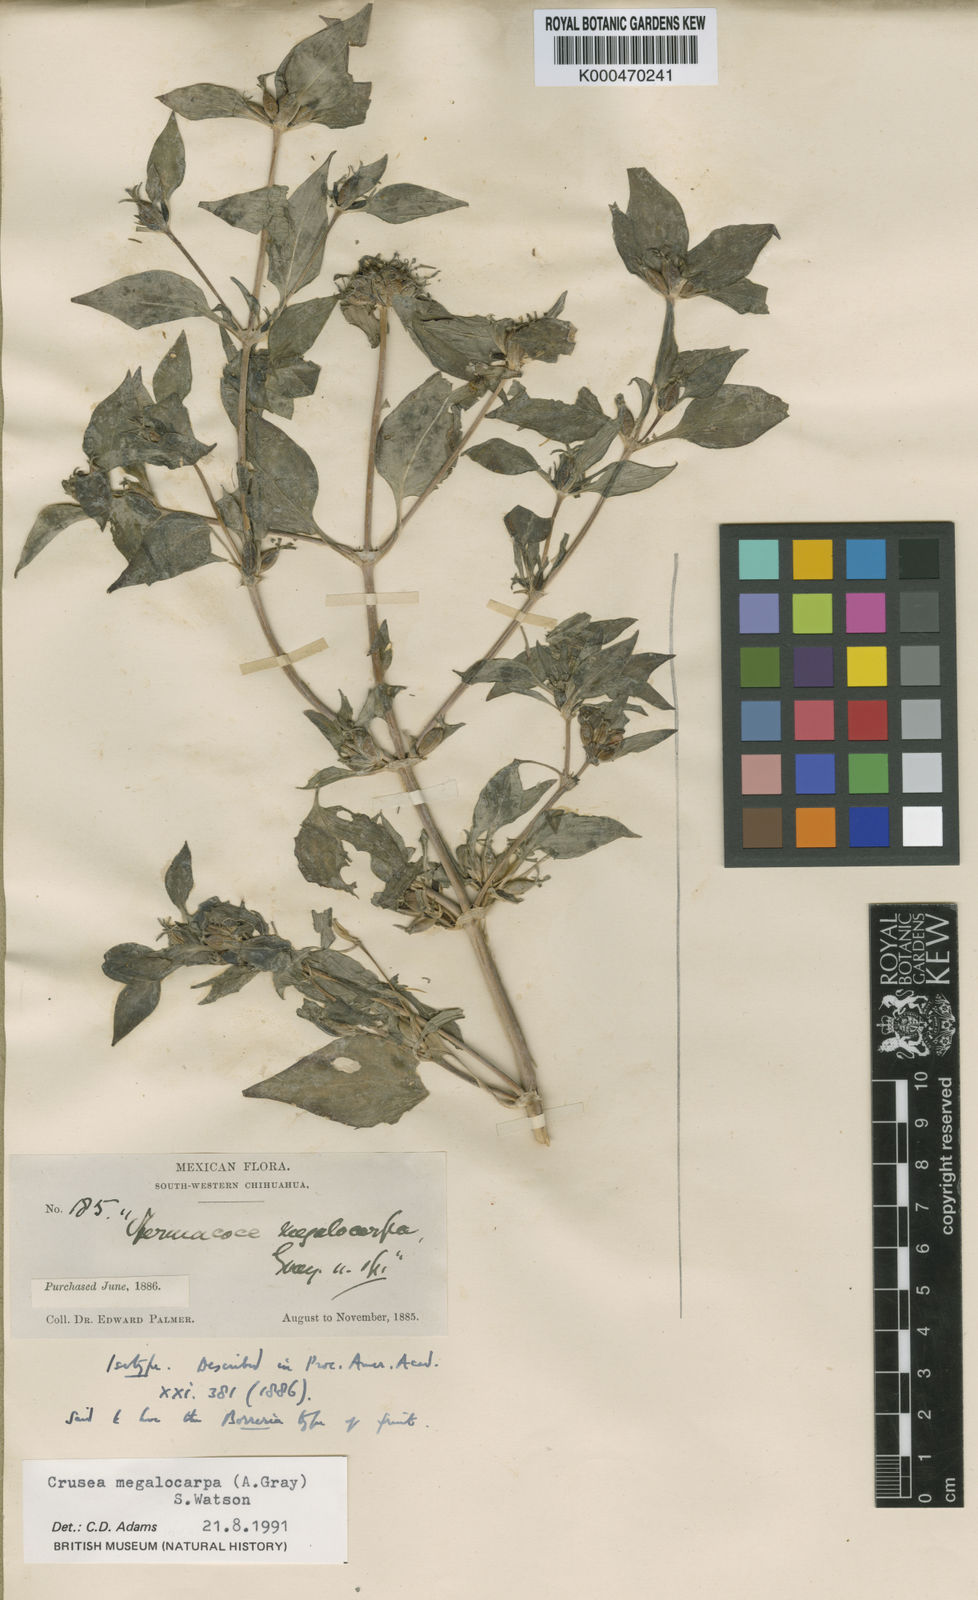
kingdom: Plantae
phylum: Tracheophyta
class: Magnoliopsida
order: Gentianales
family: Rubiaceae
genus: Crusea
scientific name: Crusea megalocarpa
